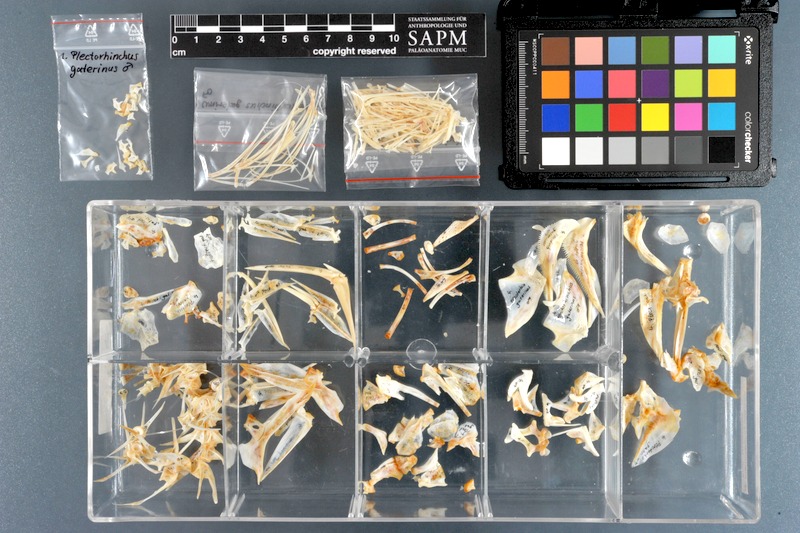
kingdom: Animalia
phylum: Chordata
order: Perciformes
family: Haemulidae
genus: Plectorhinchus
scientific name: Plectorhinchus gaterinus
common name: Blackspotted rubberlip
